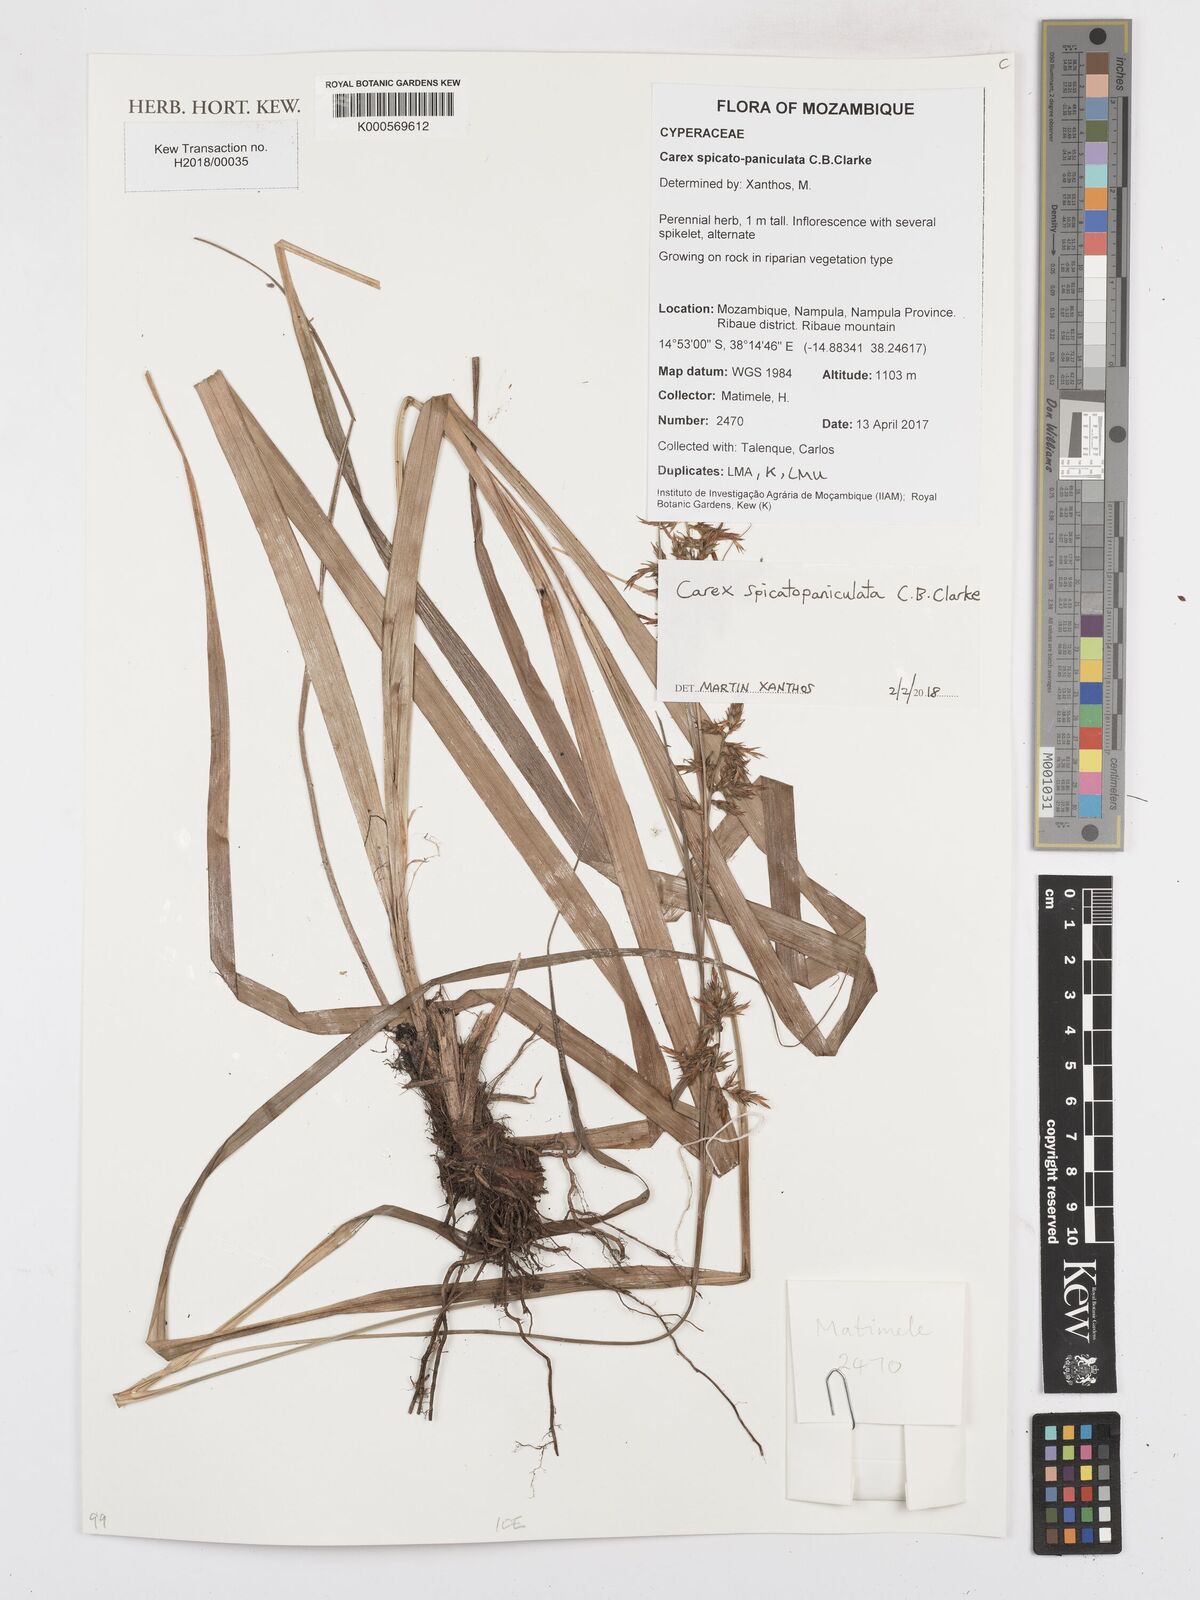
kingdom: Plantae
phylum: Tracheophyta
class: Liliopsida
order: Poales
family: Cyperaceae
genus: Carex
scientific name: Carex spicatopaniculata
